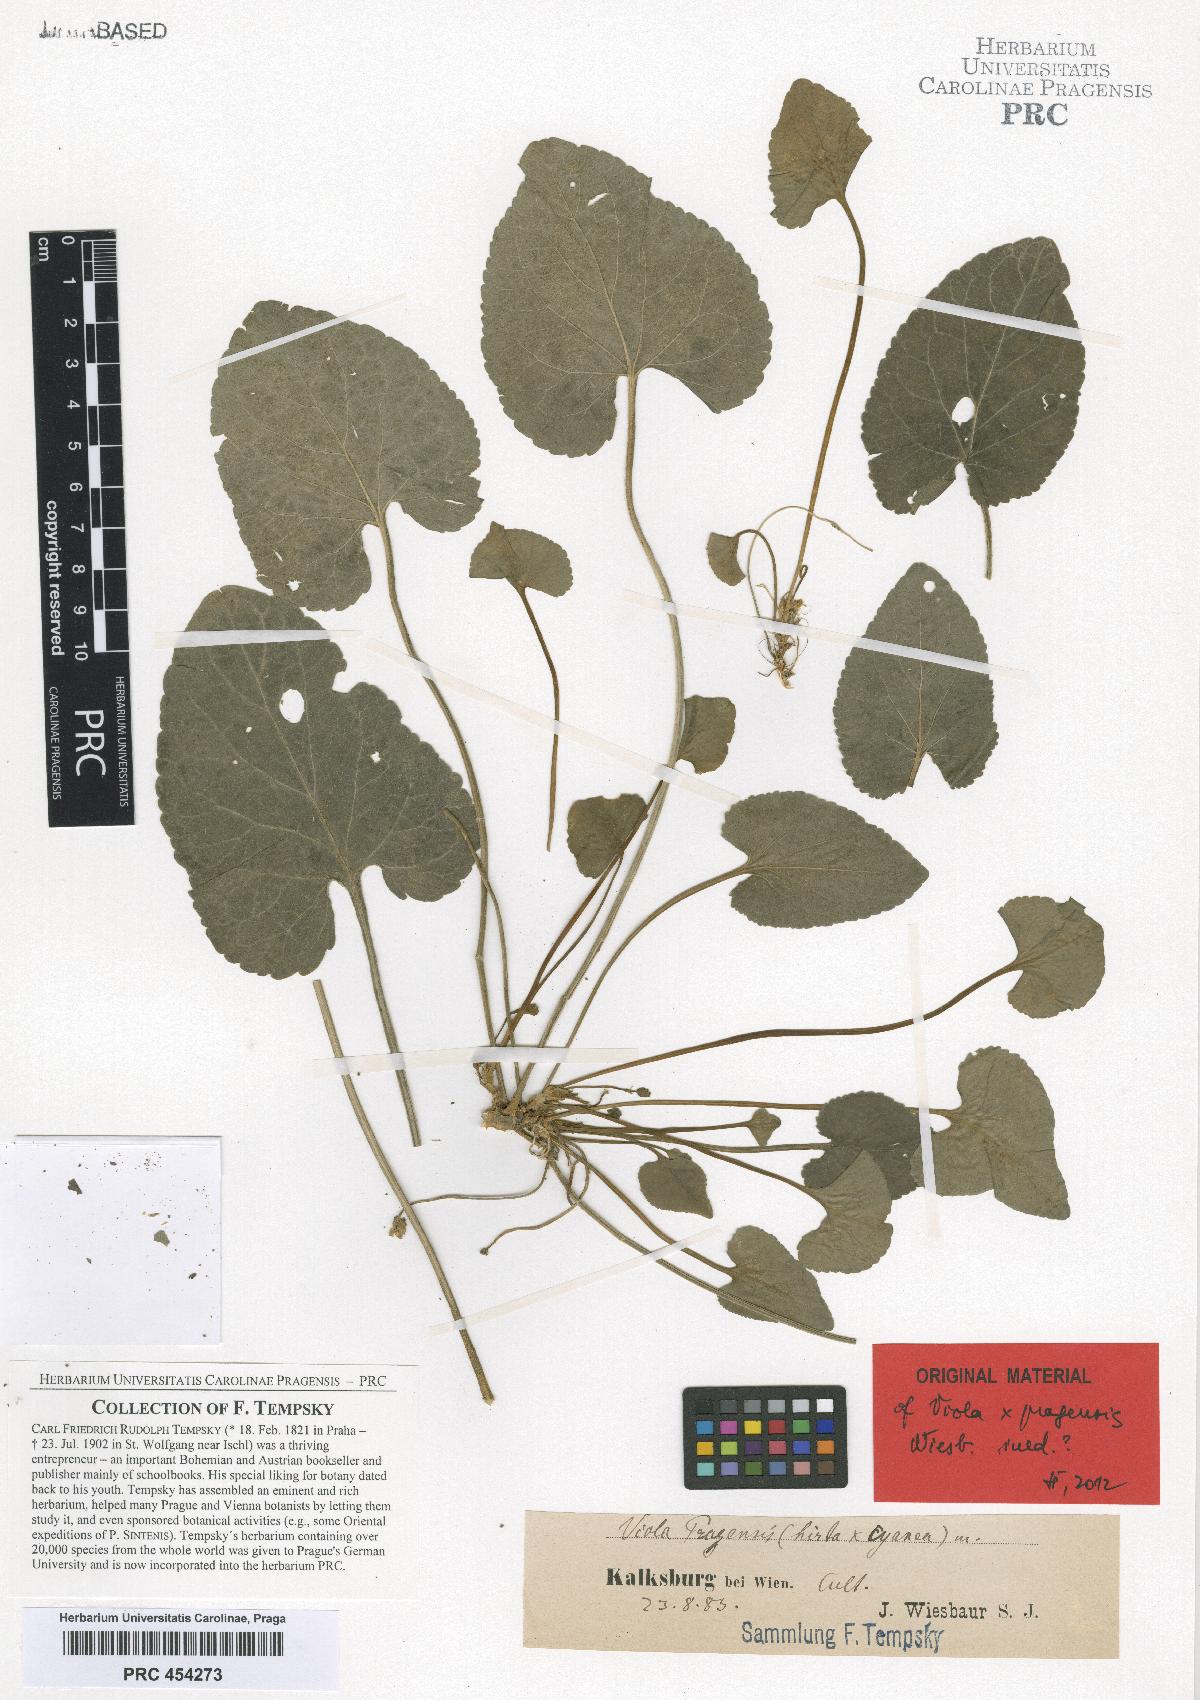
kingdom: Plantae
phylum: Tracheophyta
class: Magnoliopsida
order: Malpighiales
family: Violaceae
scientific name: Violaceae
